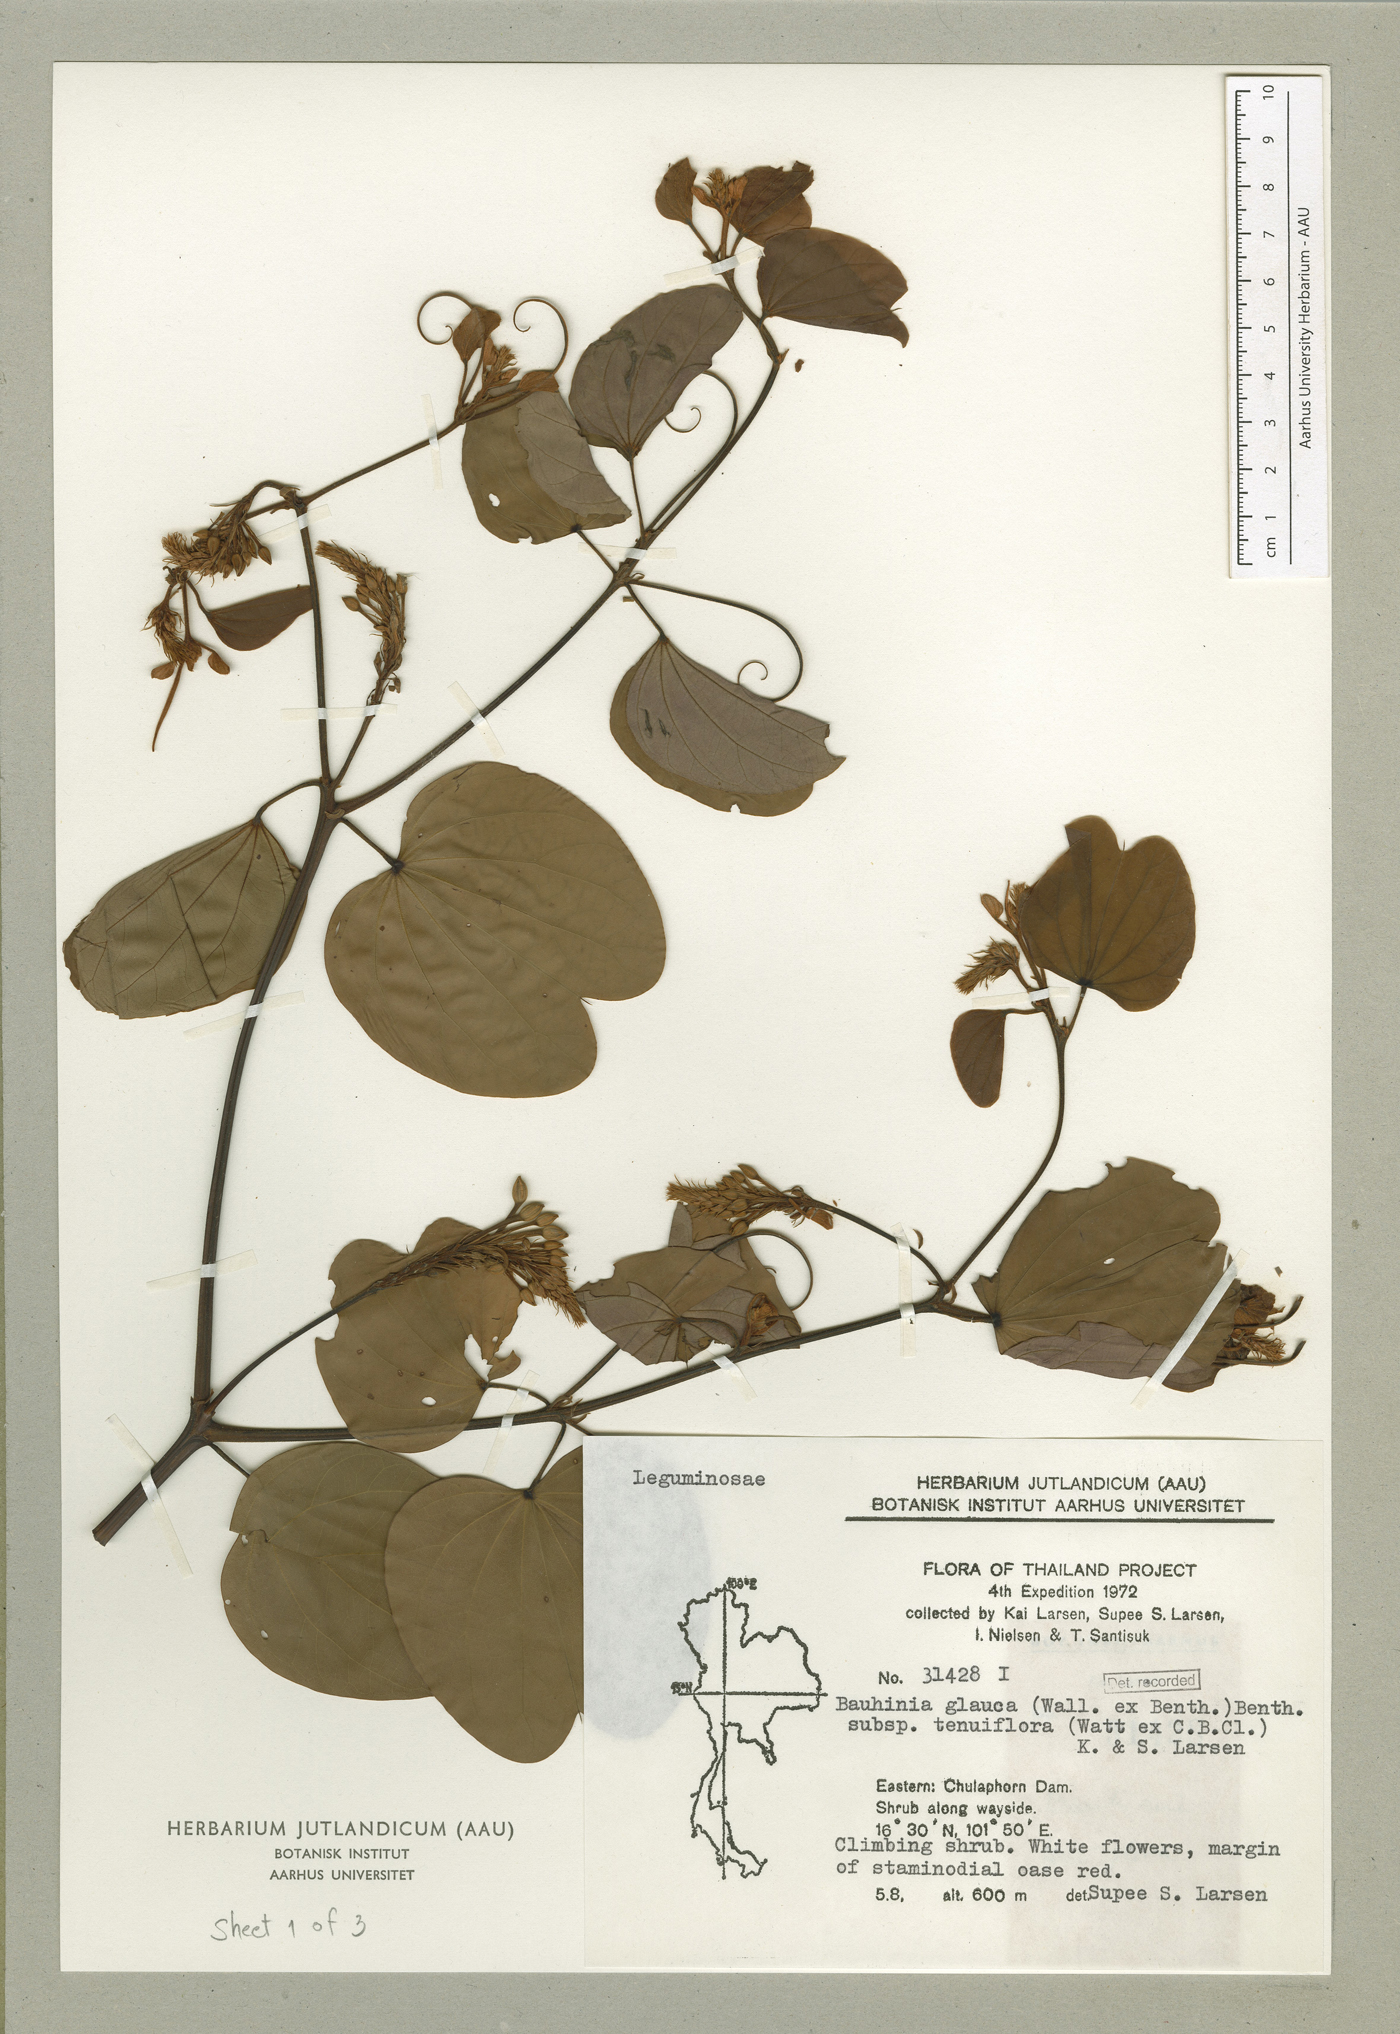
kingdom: Plantae
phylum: Tracheophyta
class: Magnoliopsida
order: Fabales
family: Fabaceae
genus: Cheniella
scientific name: Cheniella tenuiflora
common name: Bauhinia
